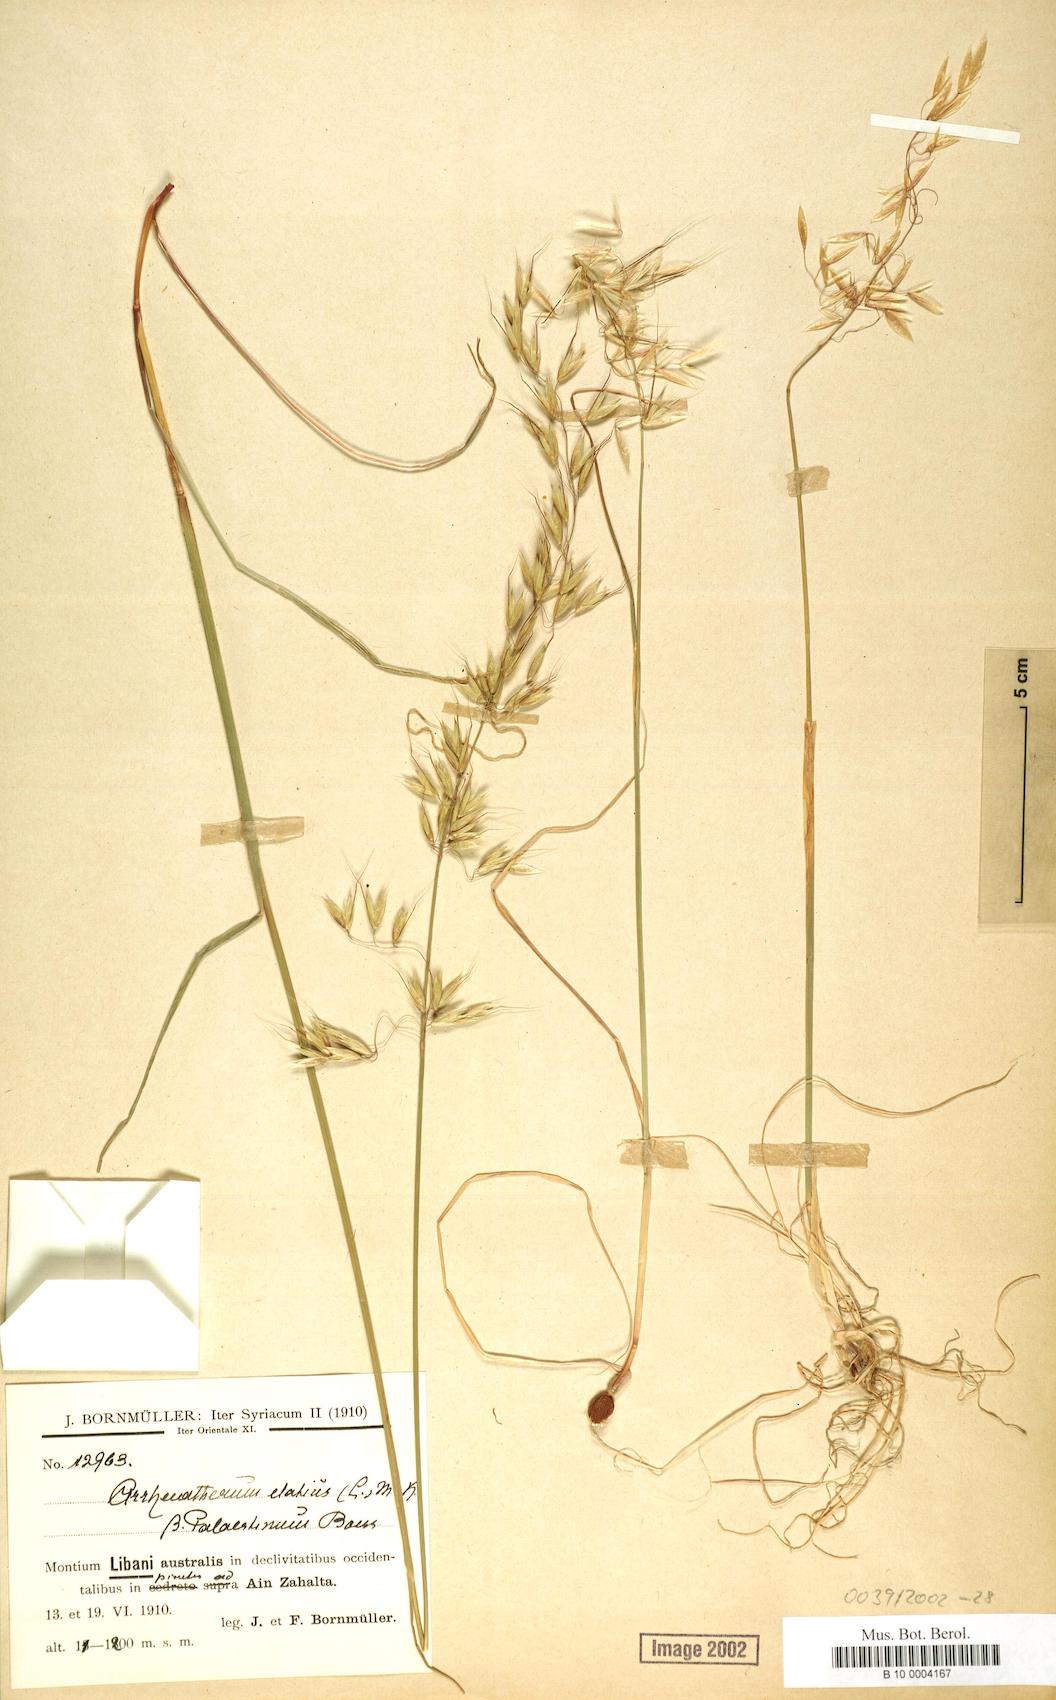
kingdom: Plantae
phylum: Tracheophyta
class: Liliopsida
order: Poales
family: Poaceae
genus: Arrhenatherum
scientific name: Arrhenatherum palaestinum
